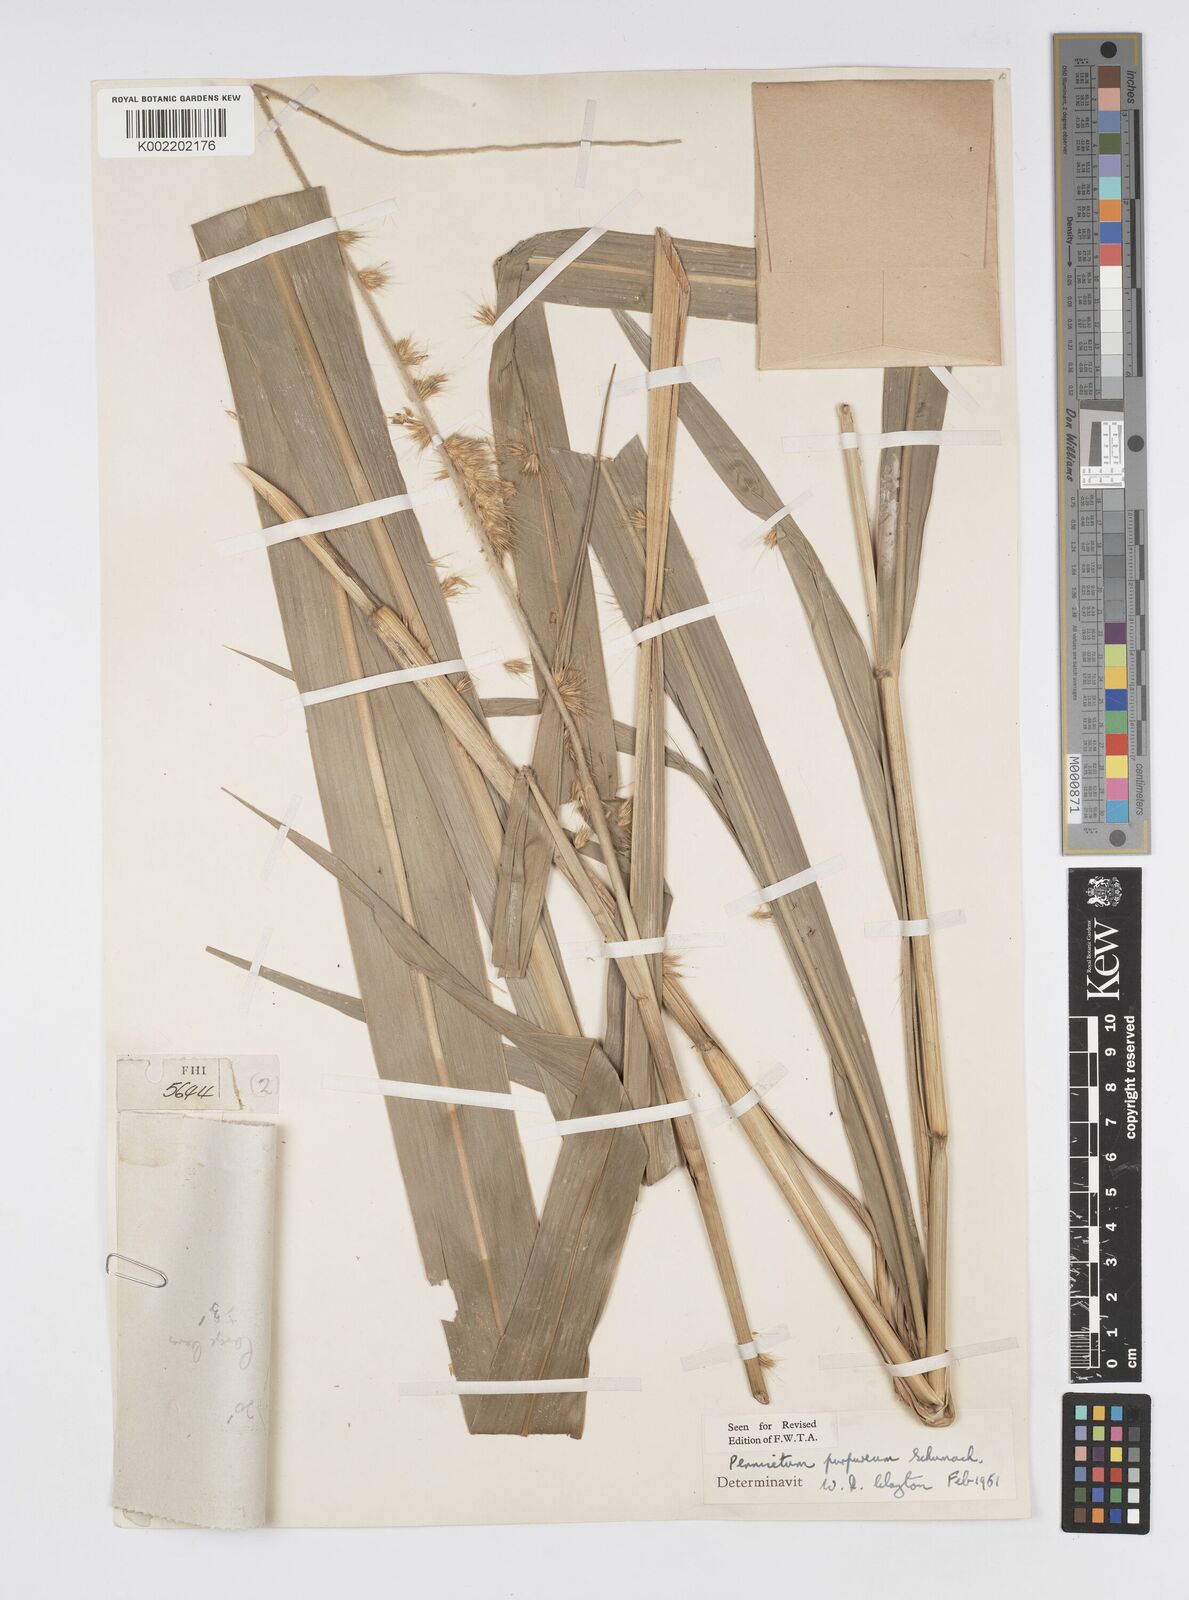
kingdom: Plantae
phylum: Tracheophyta
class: Liliopsida
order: Poales
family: Poaceae
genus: Cenchrus
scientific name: Cenchrus purpureus
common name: Elephant grass
